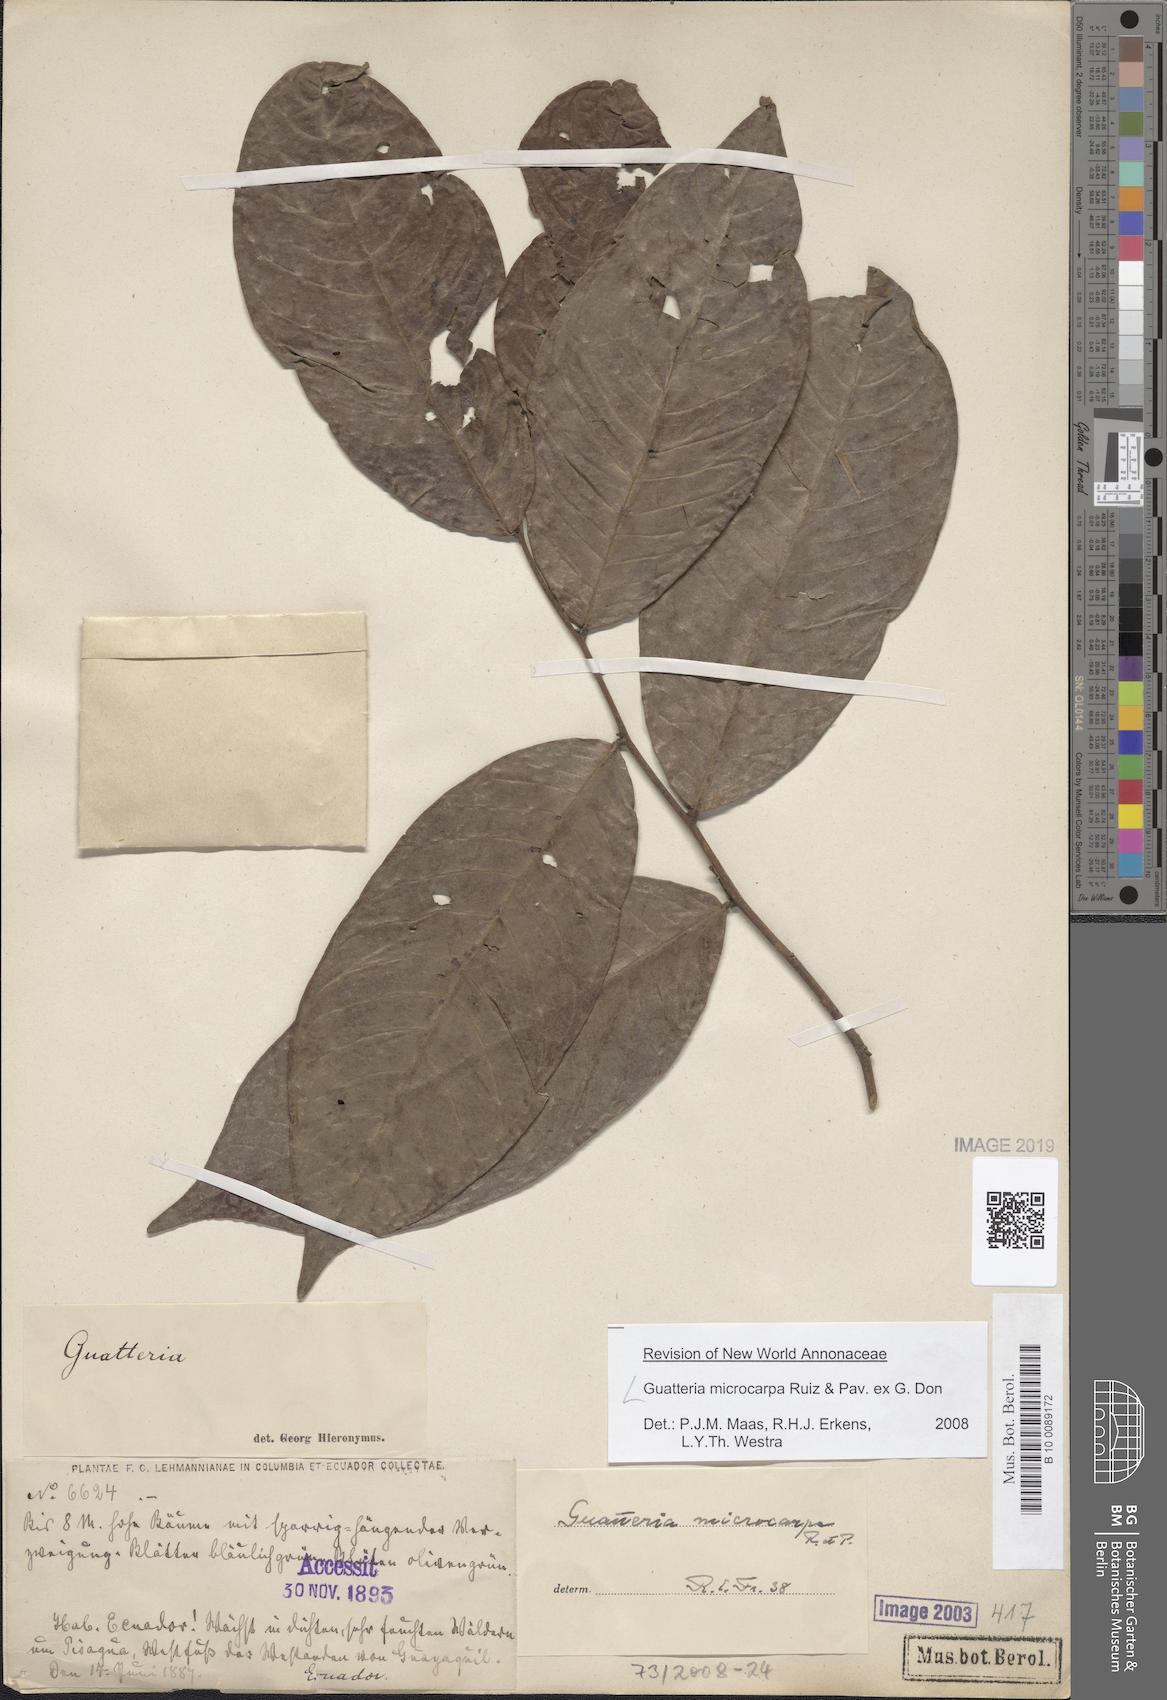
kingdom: Plantae
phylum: Tracheophyta
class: Magnoliopsida
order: Magnoliales
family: Annonaceae
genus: Guatteria
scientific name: Guatteria microcarpa
